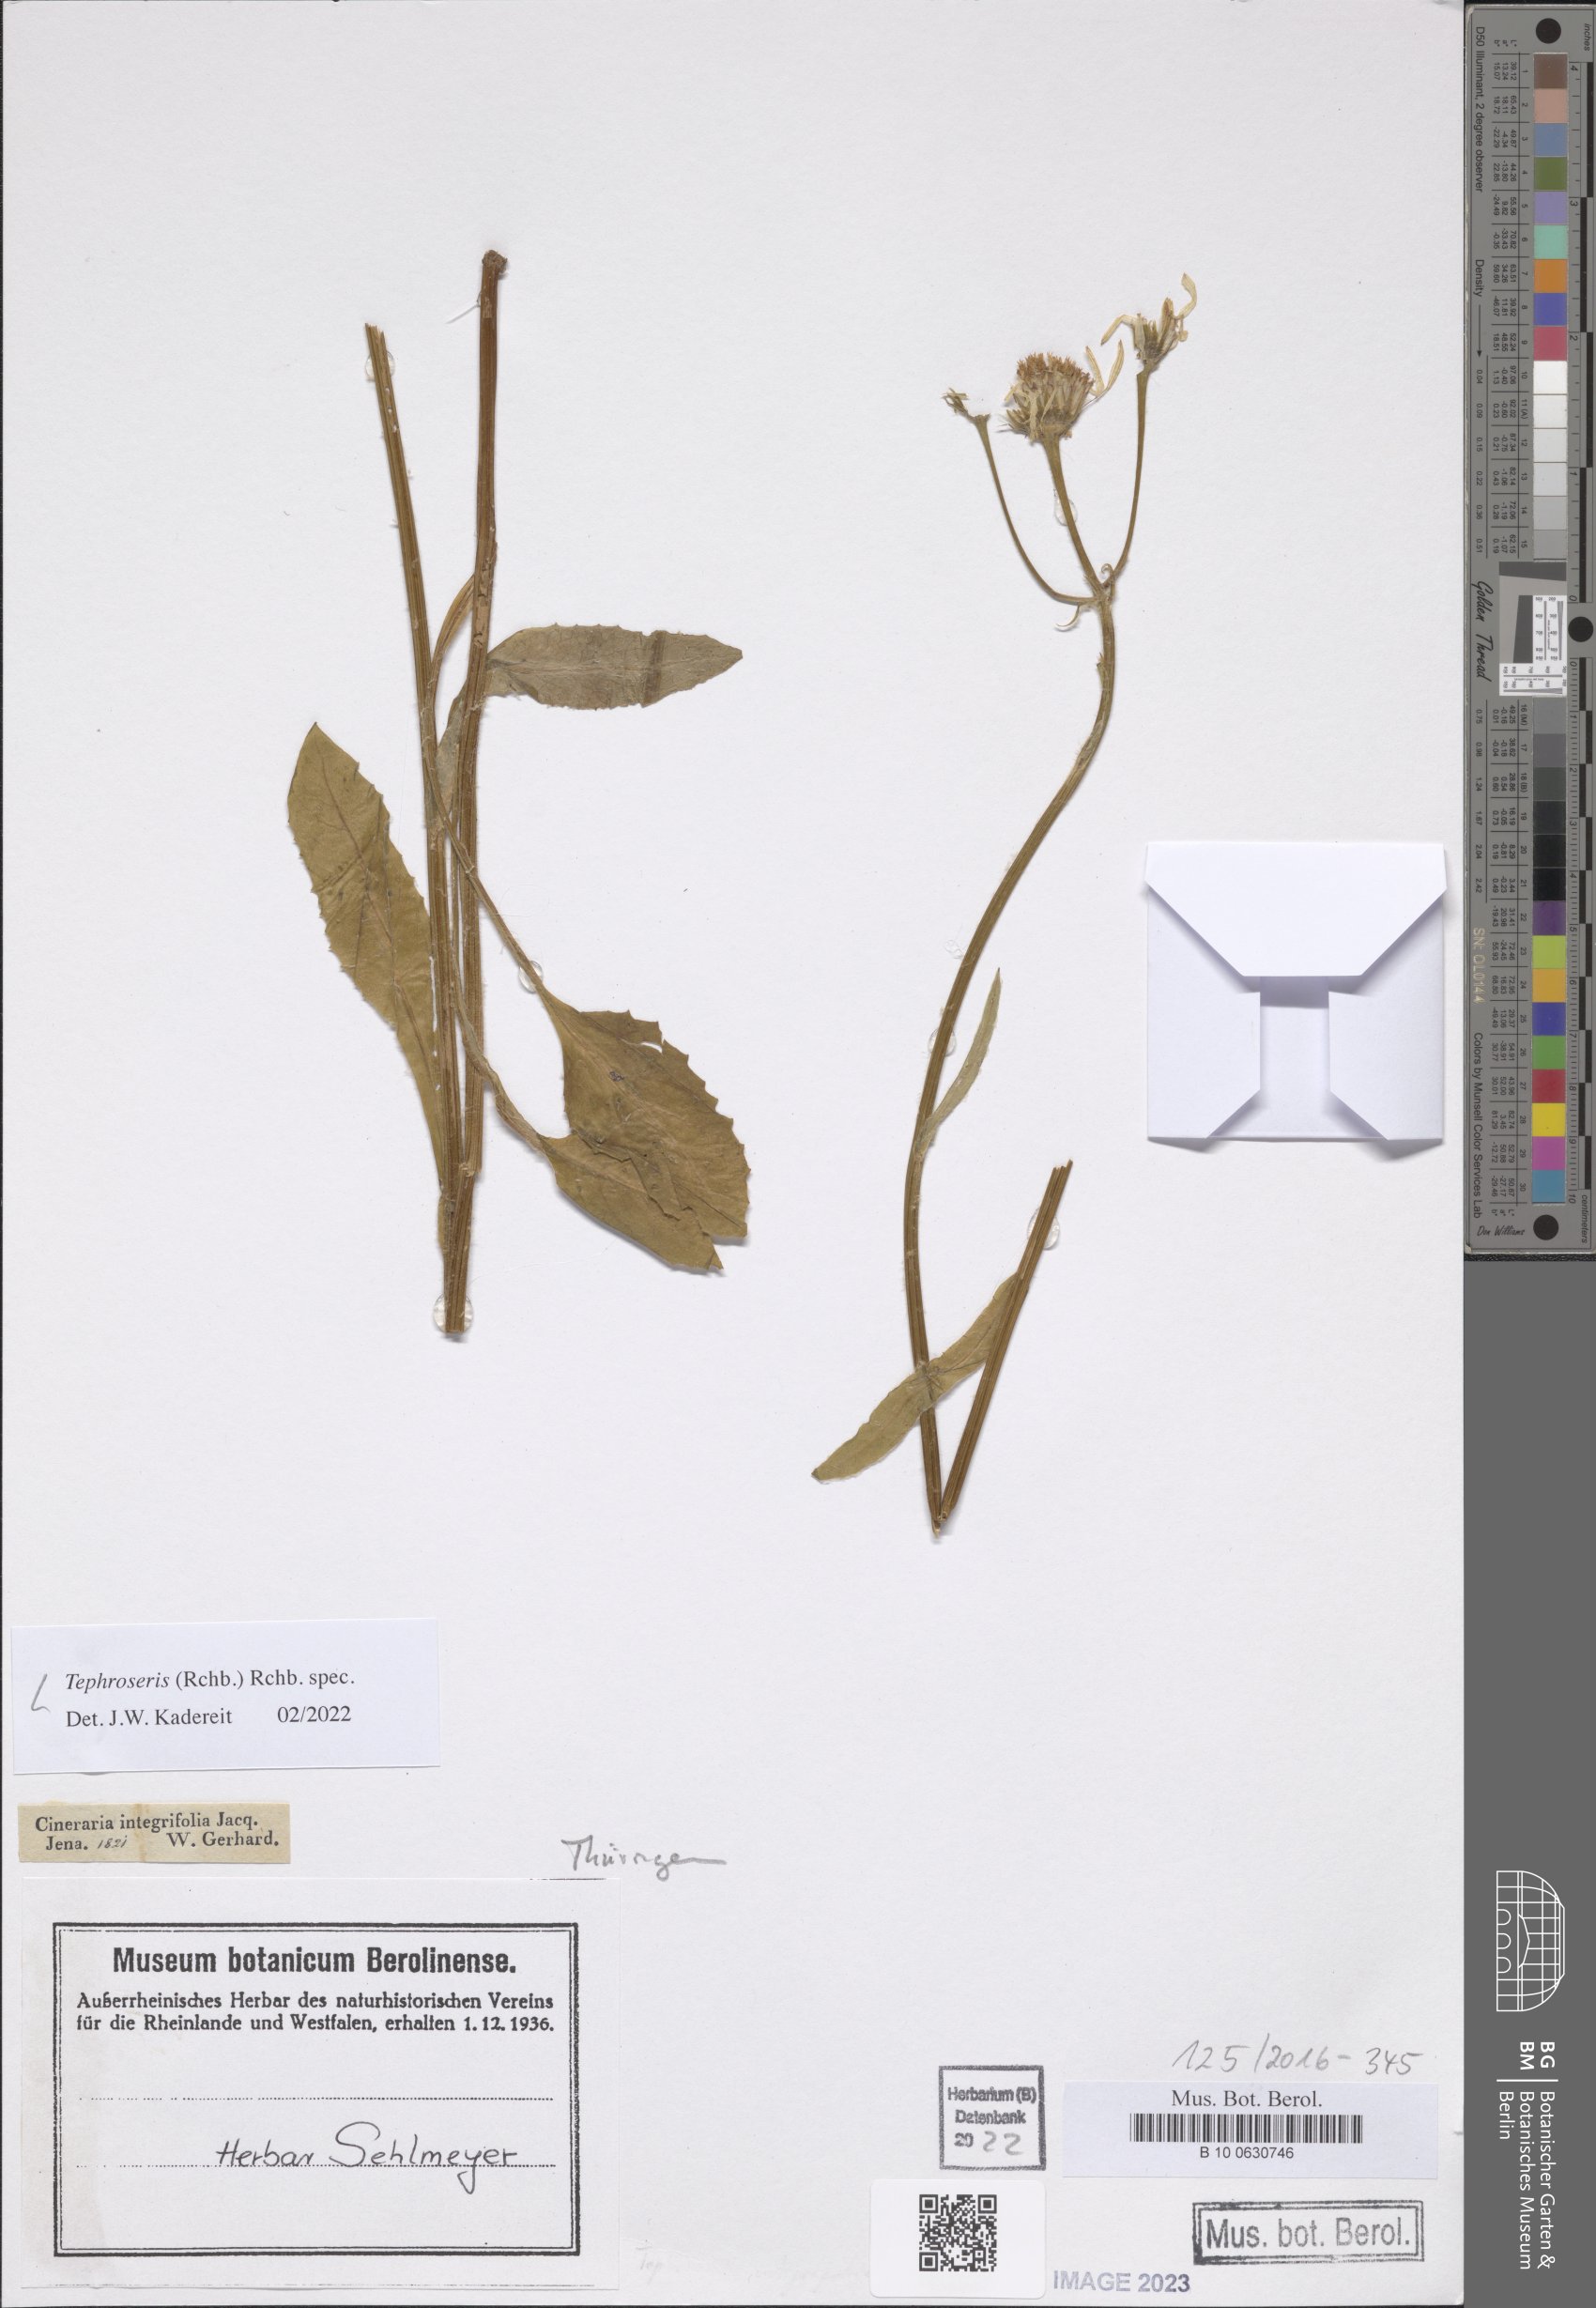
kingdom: Plantae
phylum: Tracheophyta
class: Magnoliopsida
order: Asterales
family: Asteraceae
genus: Tephroseris
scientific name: Tephroseris
